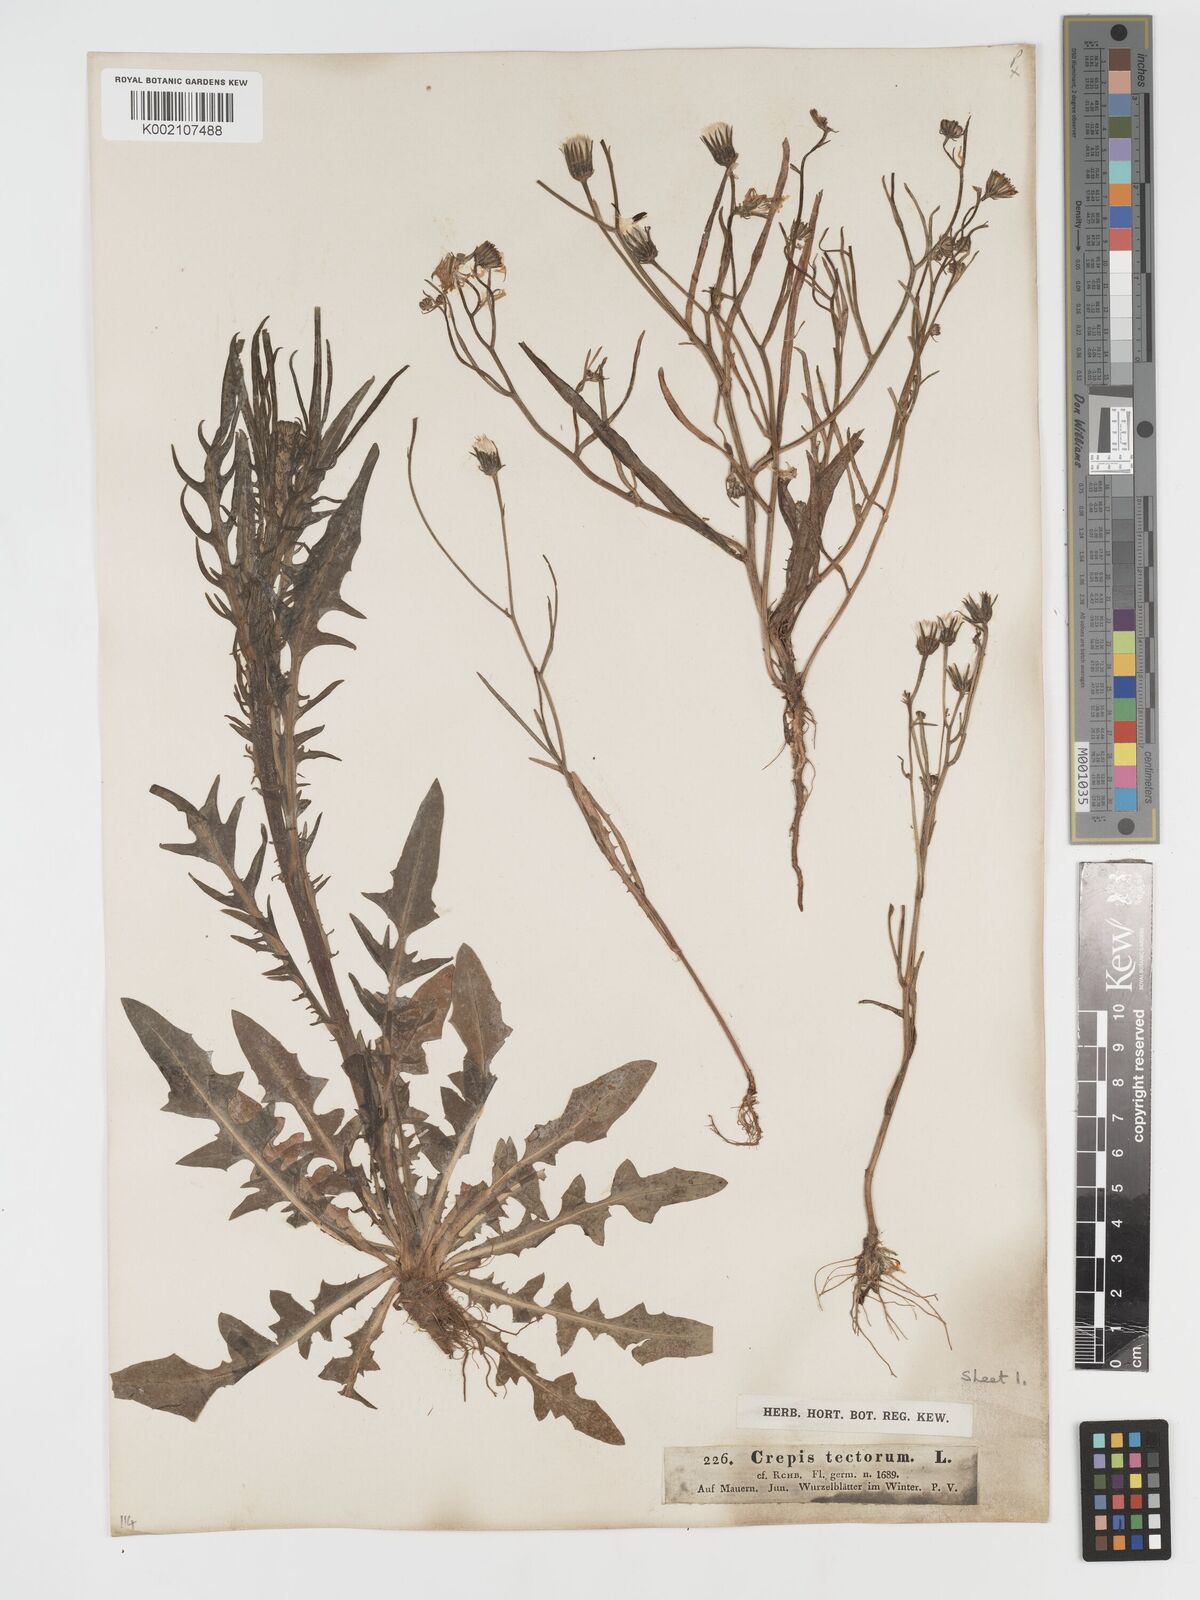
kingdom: Plantae
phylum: Tracheophyta
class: Magnoliopsida
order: Asterales
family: Asteraceae
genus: Crepis
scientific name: Crepis tectorum
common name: Narrow-leaved hawk's-beard
